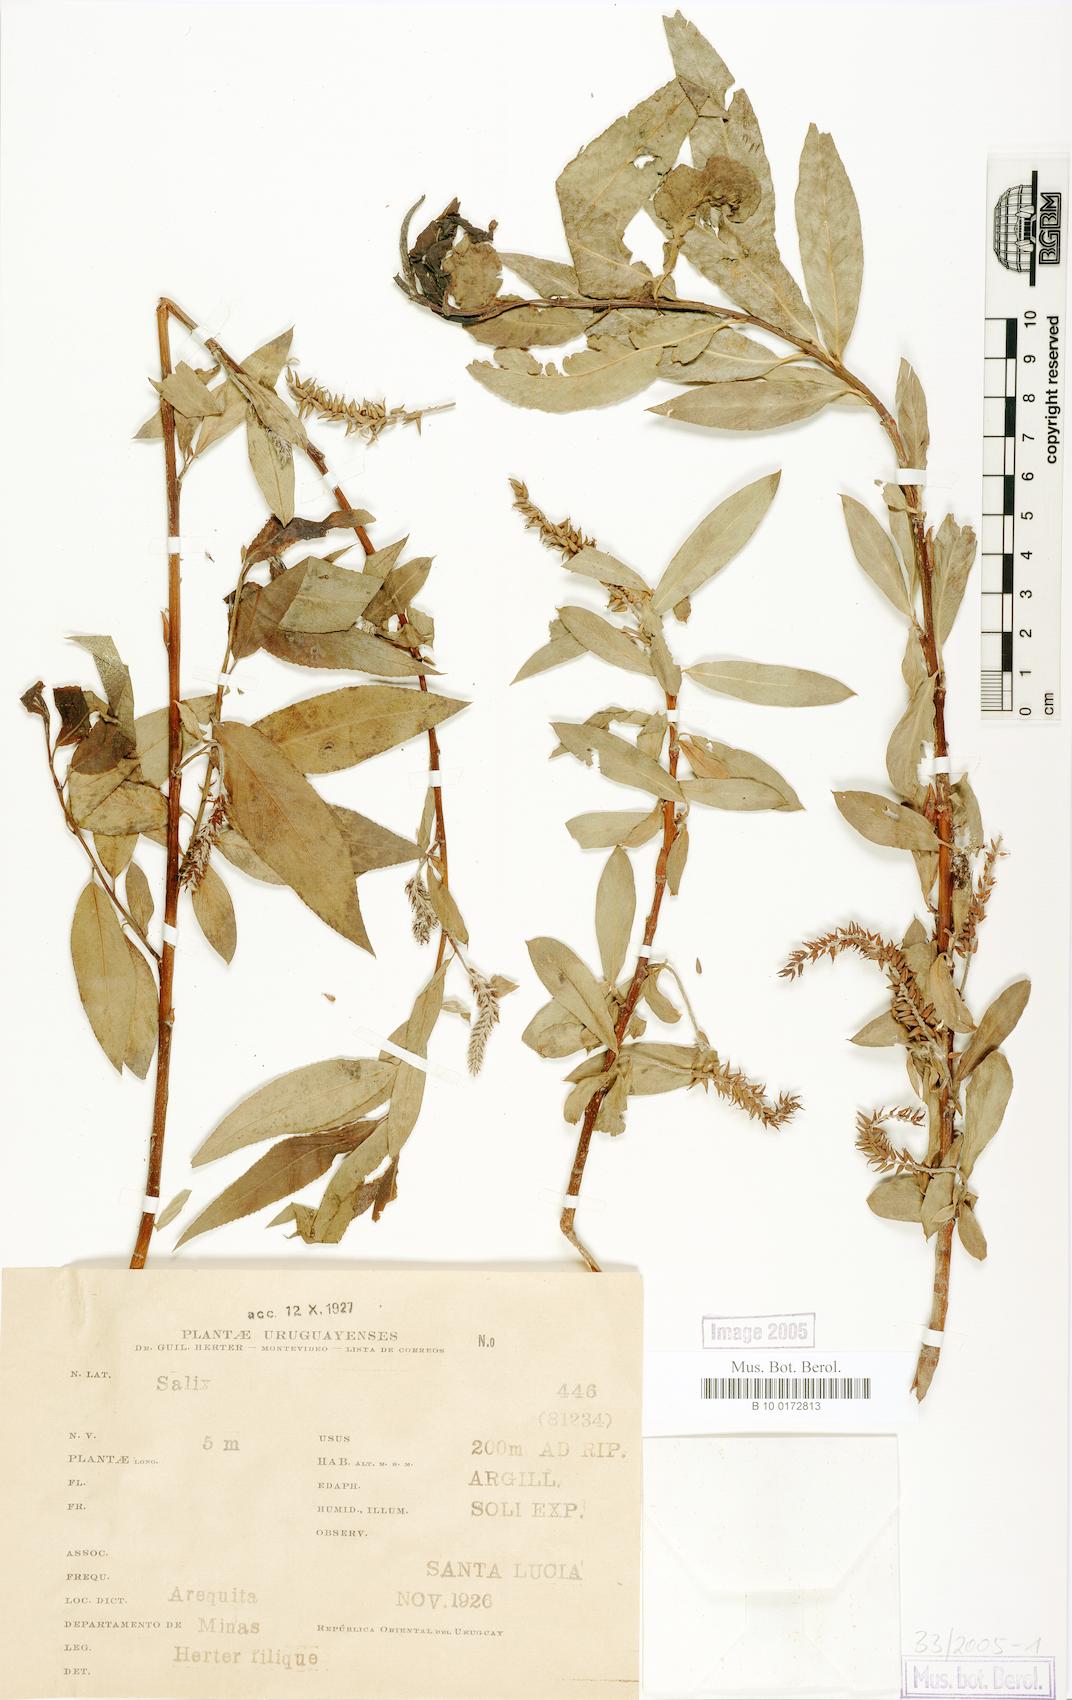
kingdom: Plantae
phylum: Tracheophyta
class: Magnoliopsida
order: Malpighiales
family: Salicaceae
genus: Salix
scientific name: Salix fragilis
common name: Crack willow
